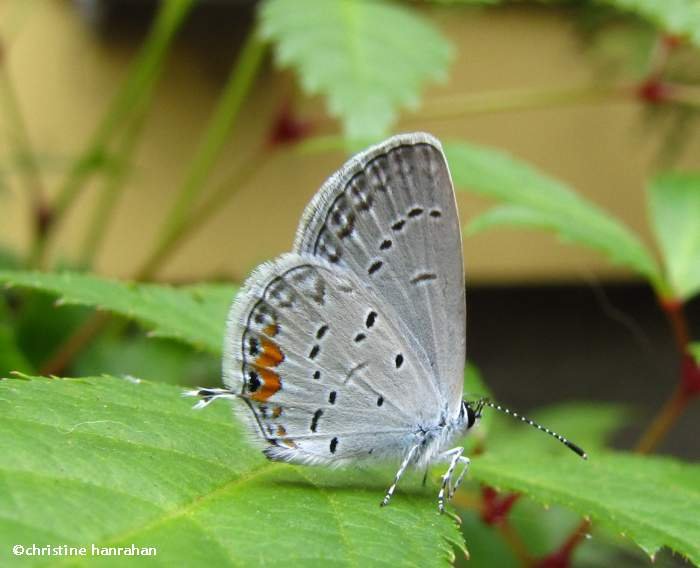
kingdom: Animalia
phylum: Arthropoda
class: Insecta
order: Lepidoptera
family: Lycaenidae
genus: Elkalyce
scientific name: Elkalyce comyntas
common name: Eastern Tailed-Blue
